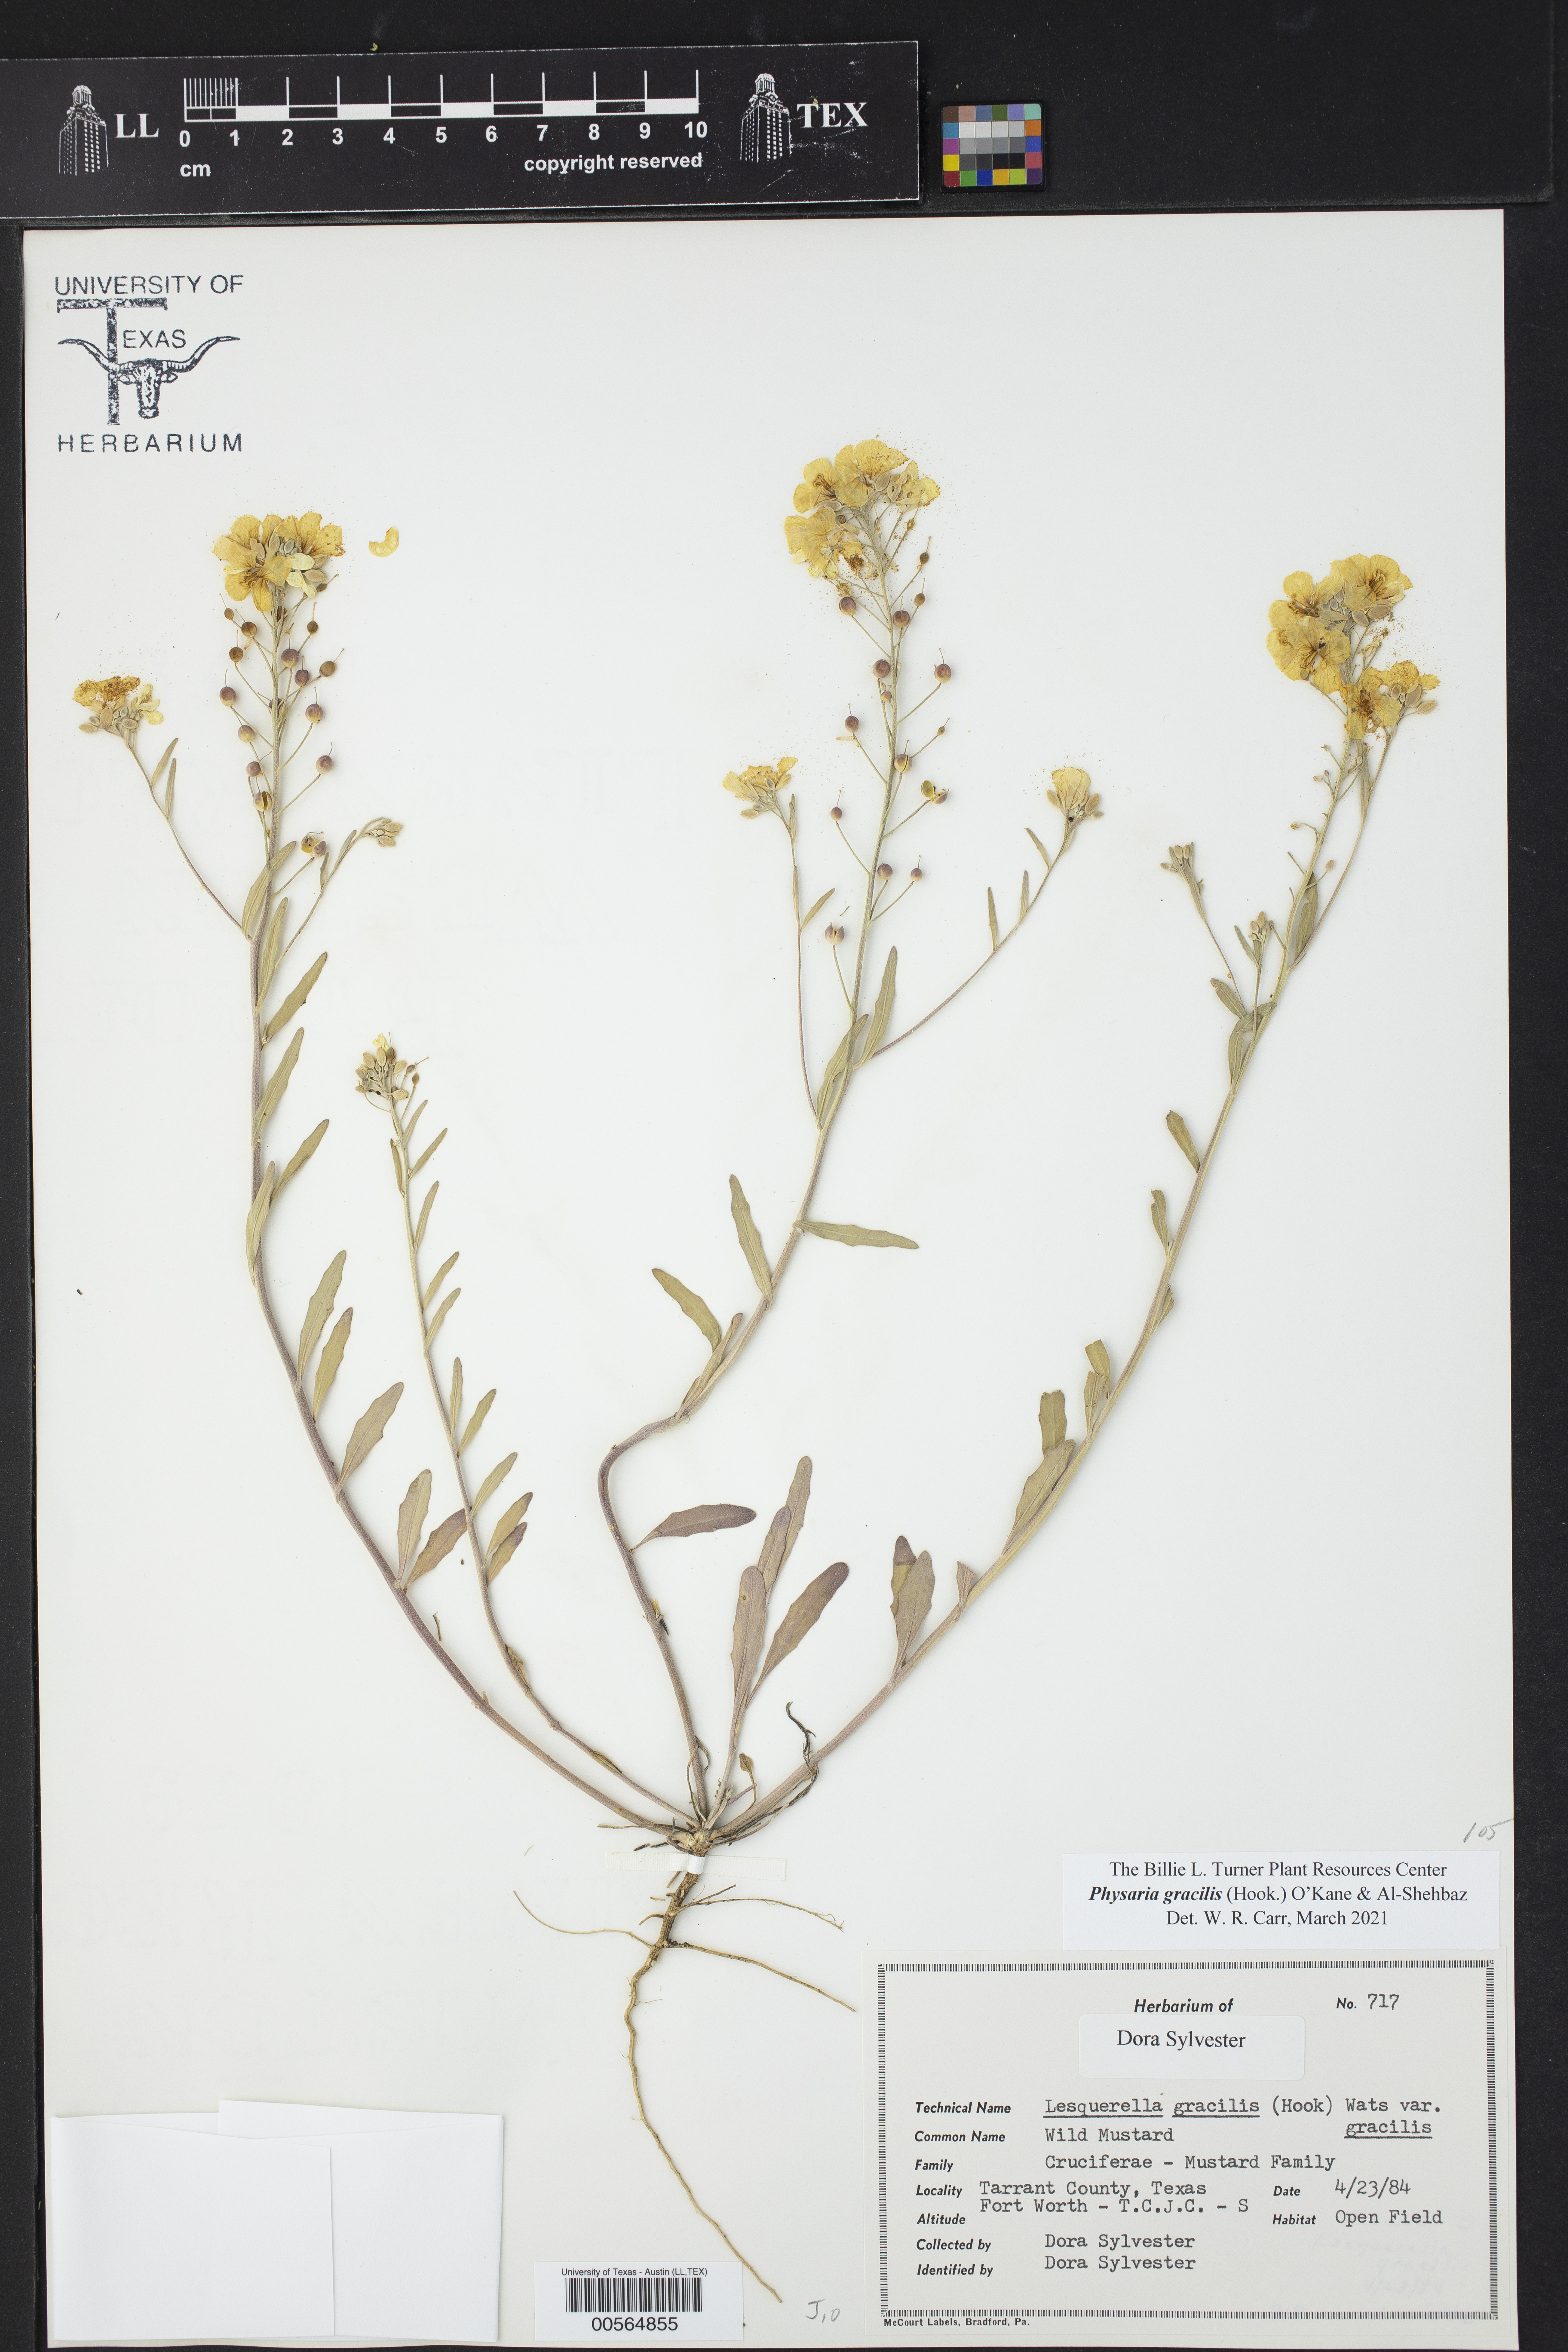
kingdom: Plantae
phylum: Tracheophyta
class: Magnoliopsida
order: Brassicales
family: Brassicaceae
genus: Physaria
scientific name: Physaria gracilis
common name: Spreading bladderpod
